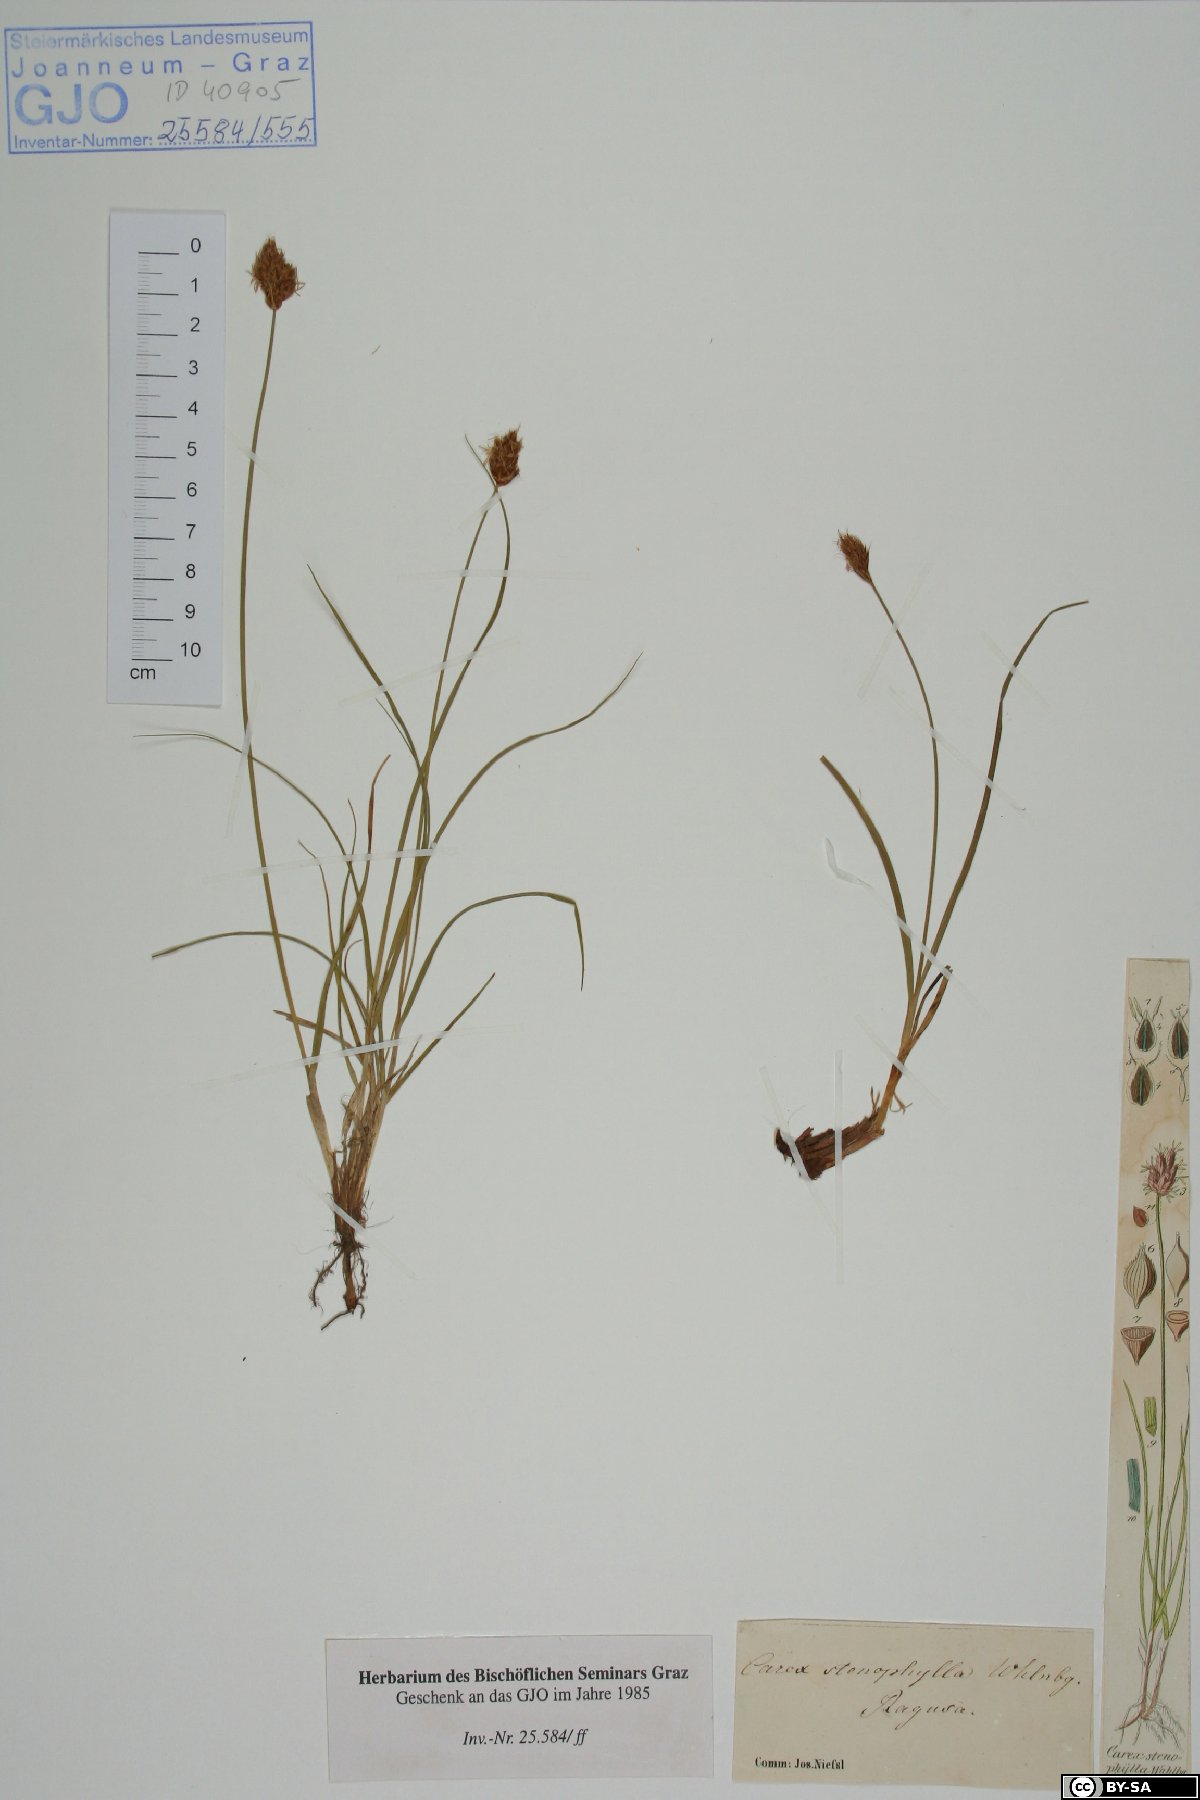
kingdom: Plantae
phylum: Tracheophyta
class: Liliopsida
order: Poales
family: Cyperaceae
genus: Carex
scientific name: Carex stenophylla
